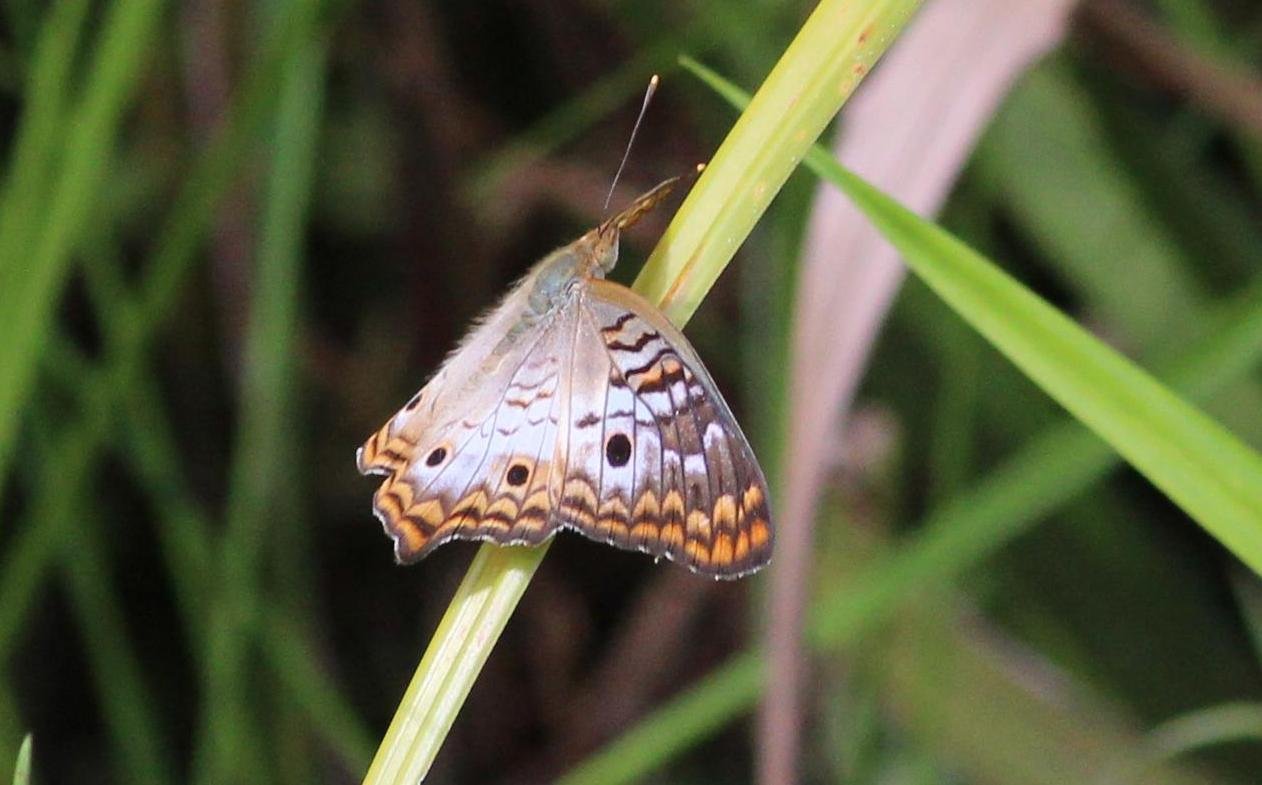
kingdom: Animalia
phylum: Arthropoda
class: Insecta
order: Lepidoptera
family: Nymphalidae
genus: Anartia
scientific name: Anartia jatrophae
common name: White Peacock
